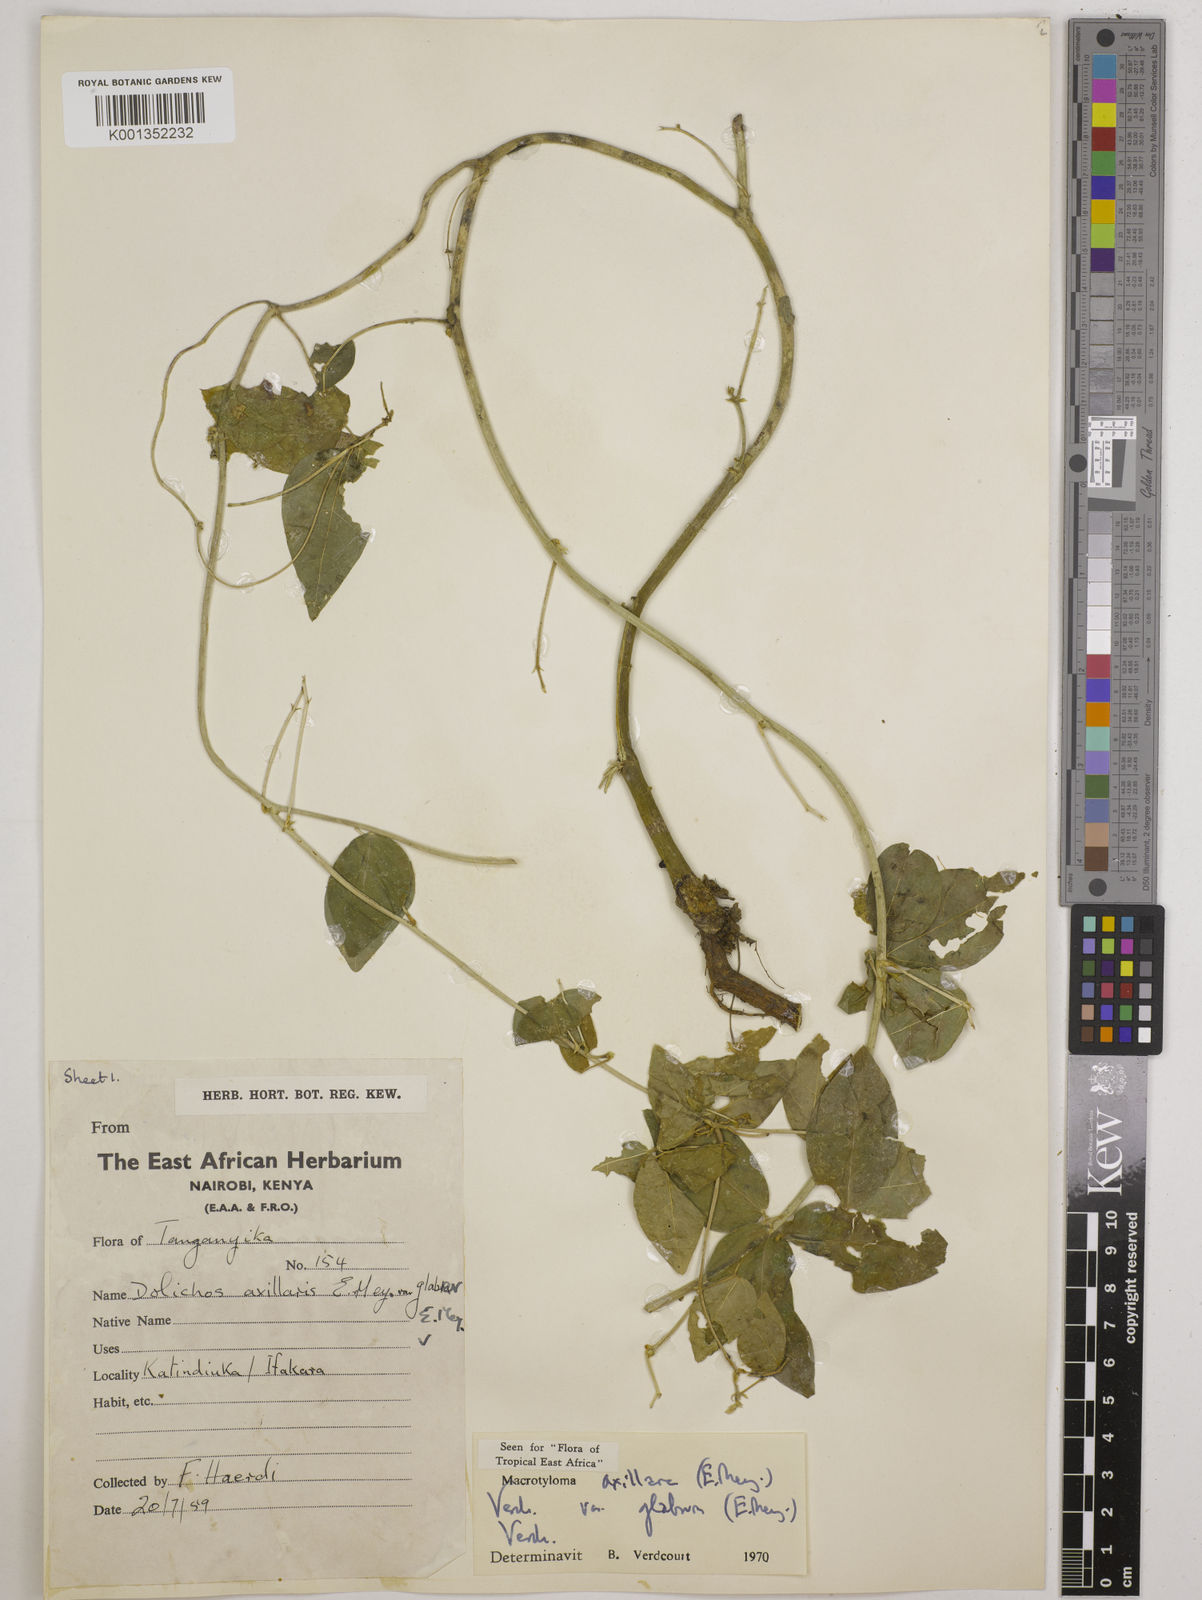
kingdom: Plantae
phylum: Tracheophyta
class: Magnoliopsida
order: Fabales
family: Fabaceae
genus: Macrotyloma
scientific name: Macrotyloma
